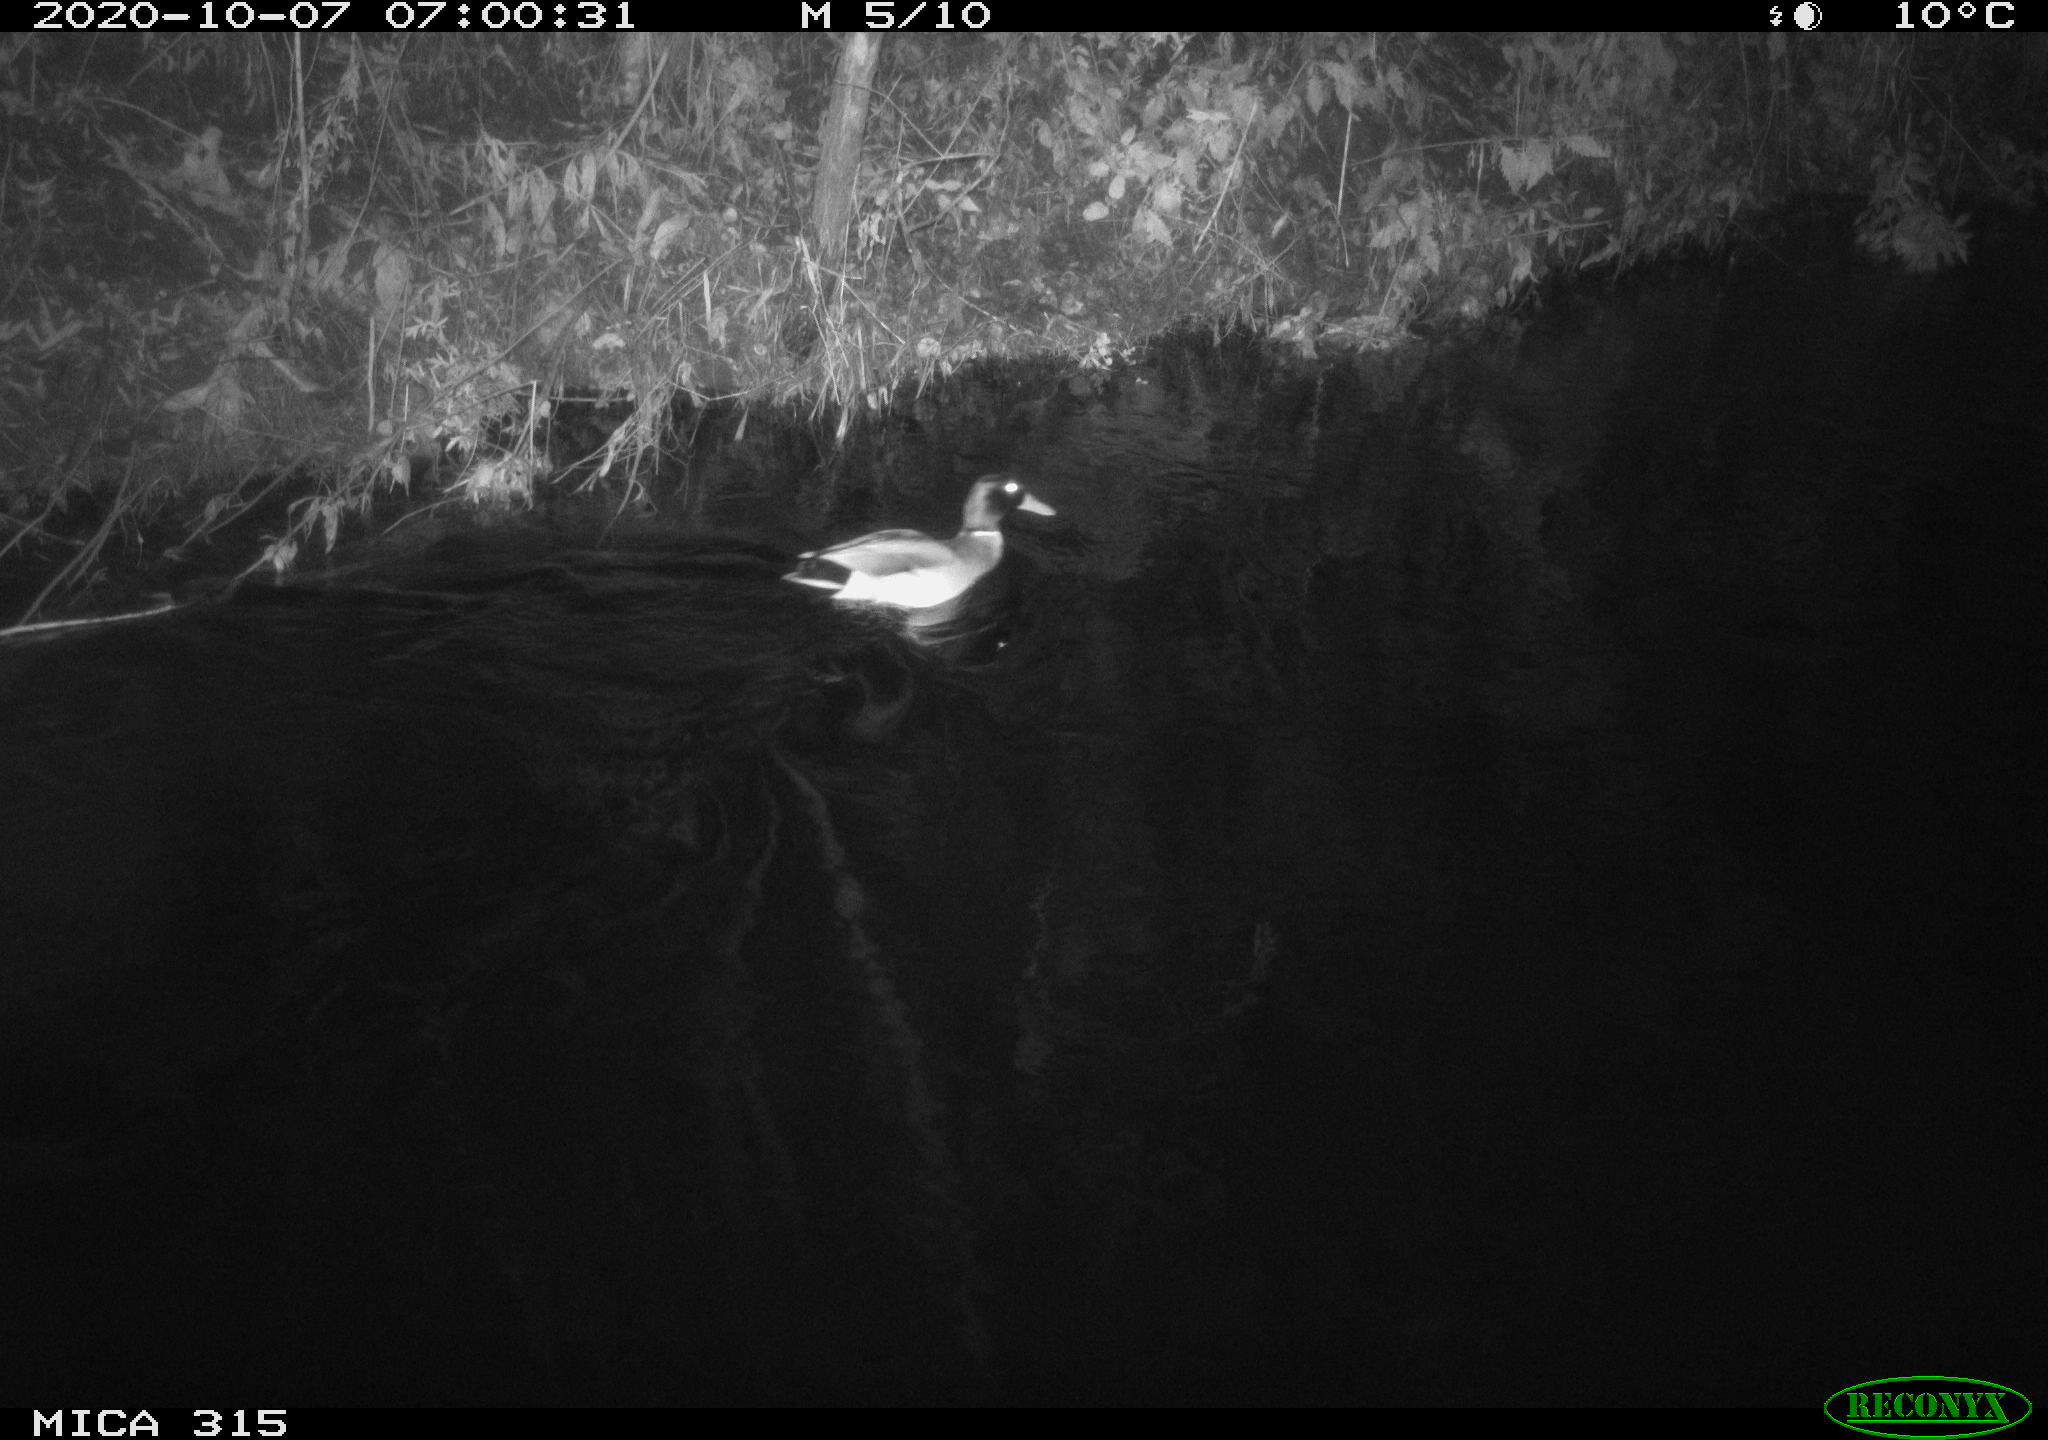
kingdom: Animalia
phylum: Chordata
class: Aves
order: Anseriformes
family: Anatidae
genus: Anas
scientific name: Anas platyrhynchos
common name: Mallard
